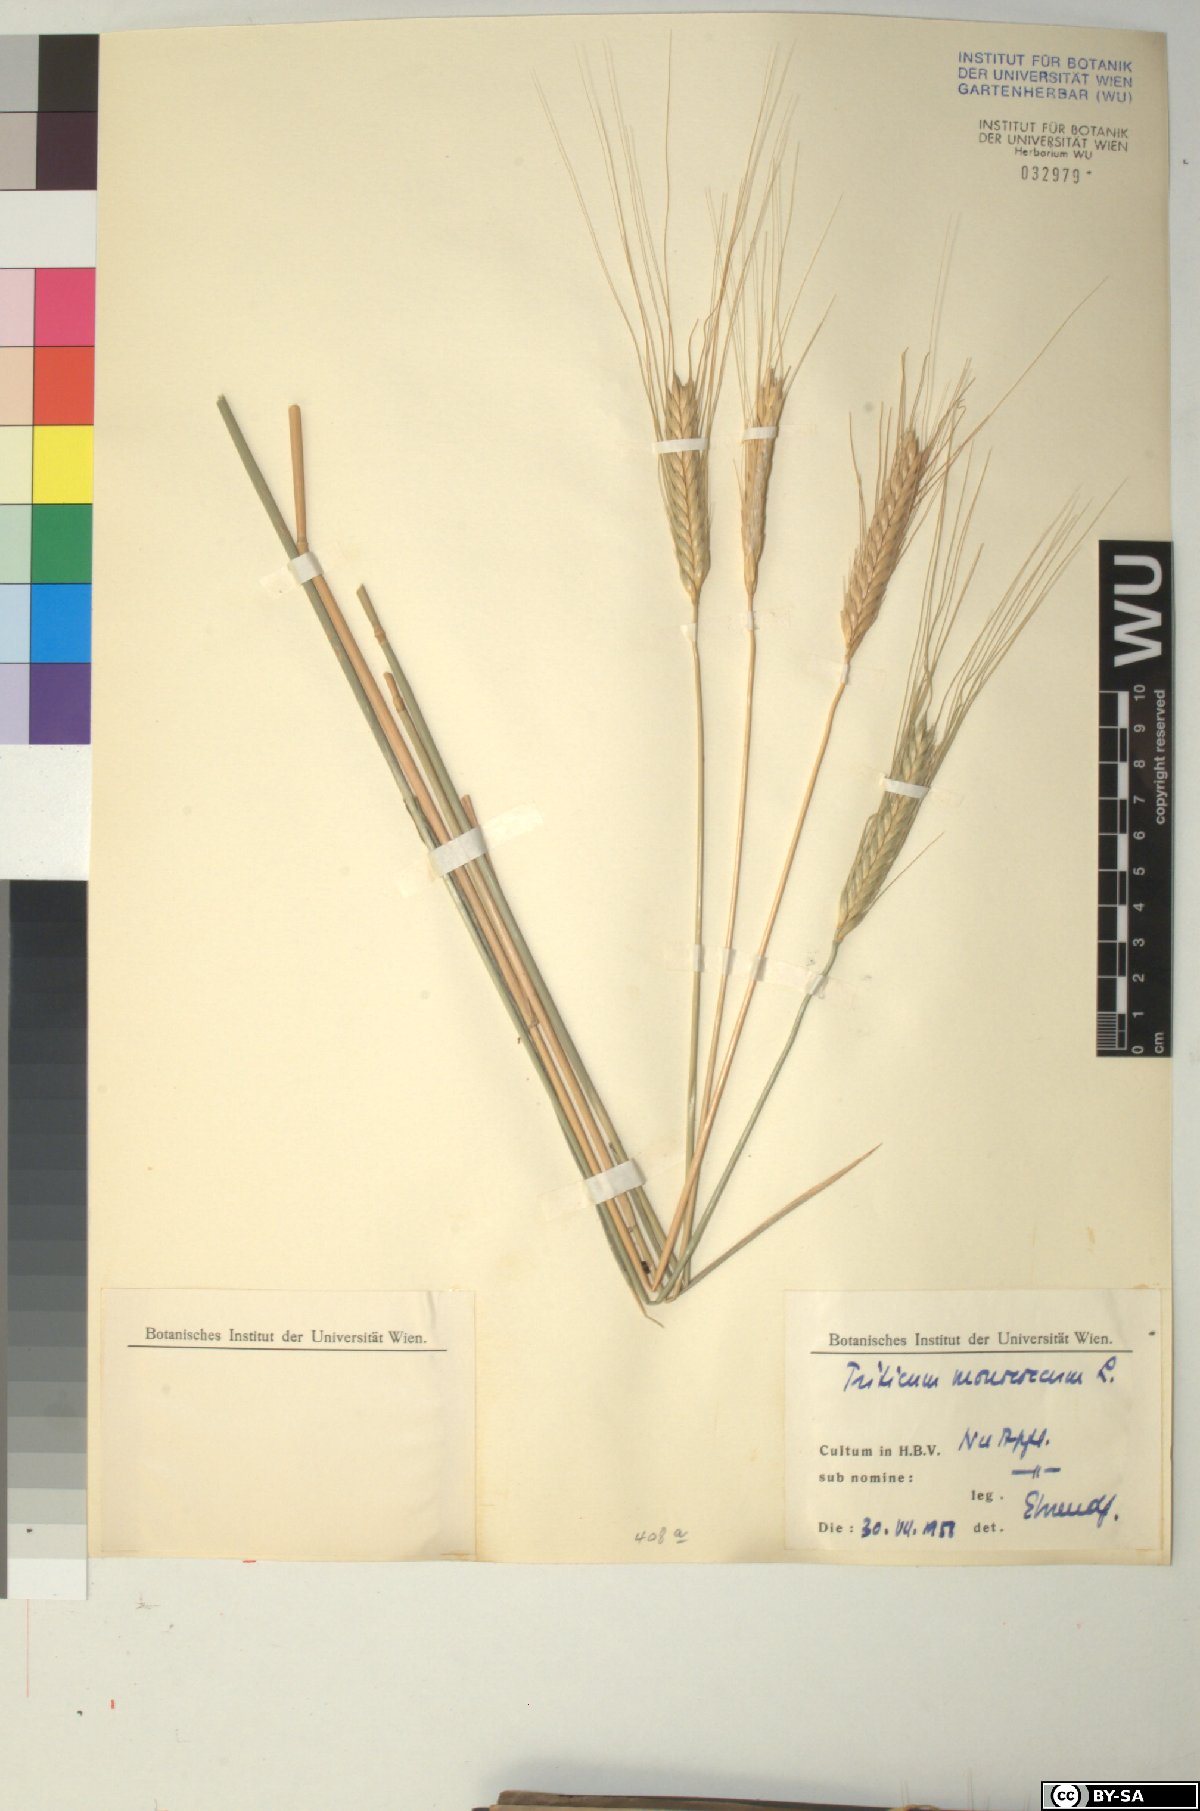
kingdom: Plantae
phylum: Tracheophyta
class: Liliopsida
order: Poales
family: Poaceae
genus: Triticum
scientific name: Triticum monococcum
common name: Einkorn
